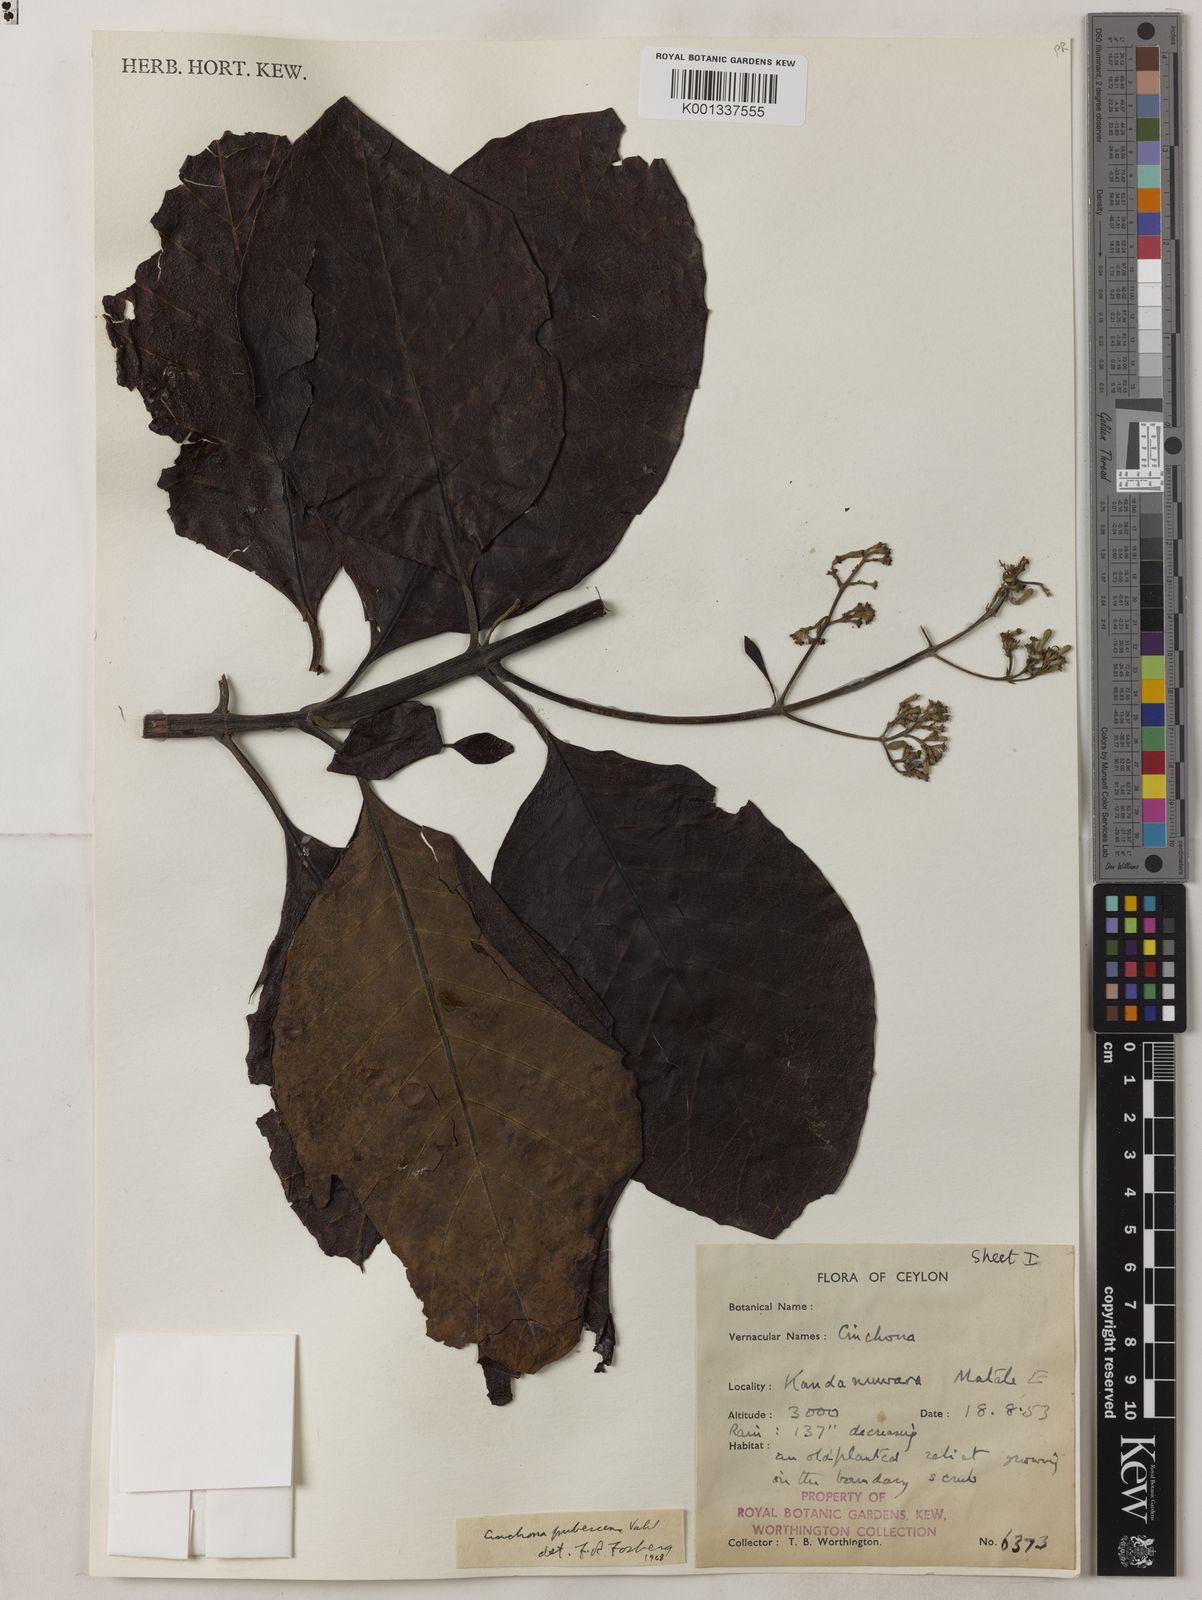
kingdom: Plantae
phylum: Tracheophyta
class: Magnoliopsida
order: Gentianales
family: Rubiaceae
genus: Cinchona
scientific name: Cinchona pubescens
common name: Quinine
